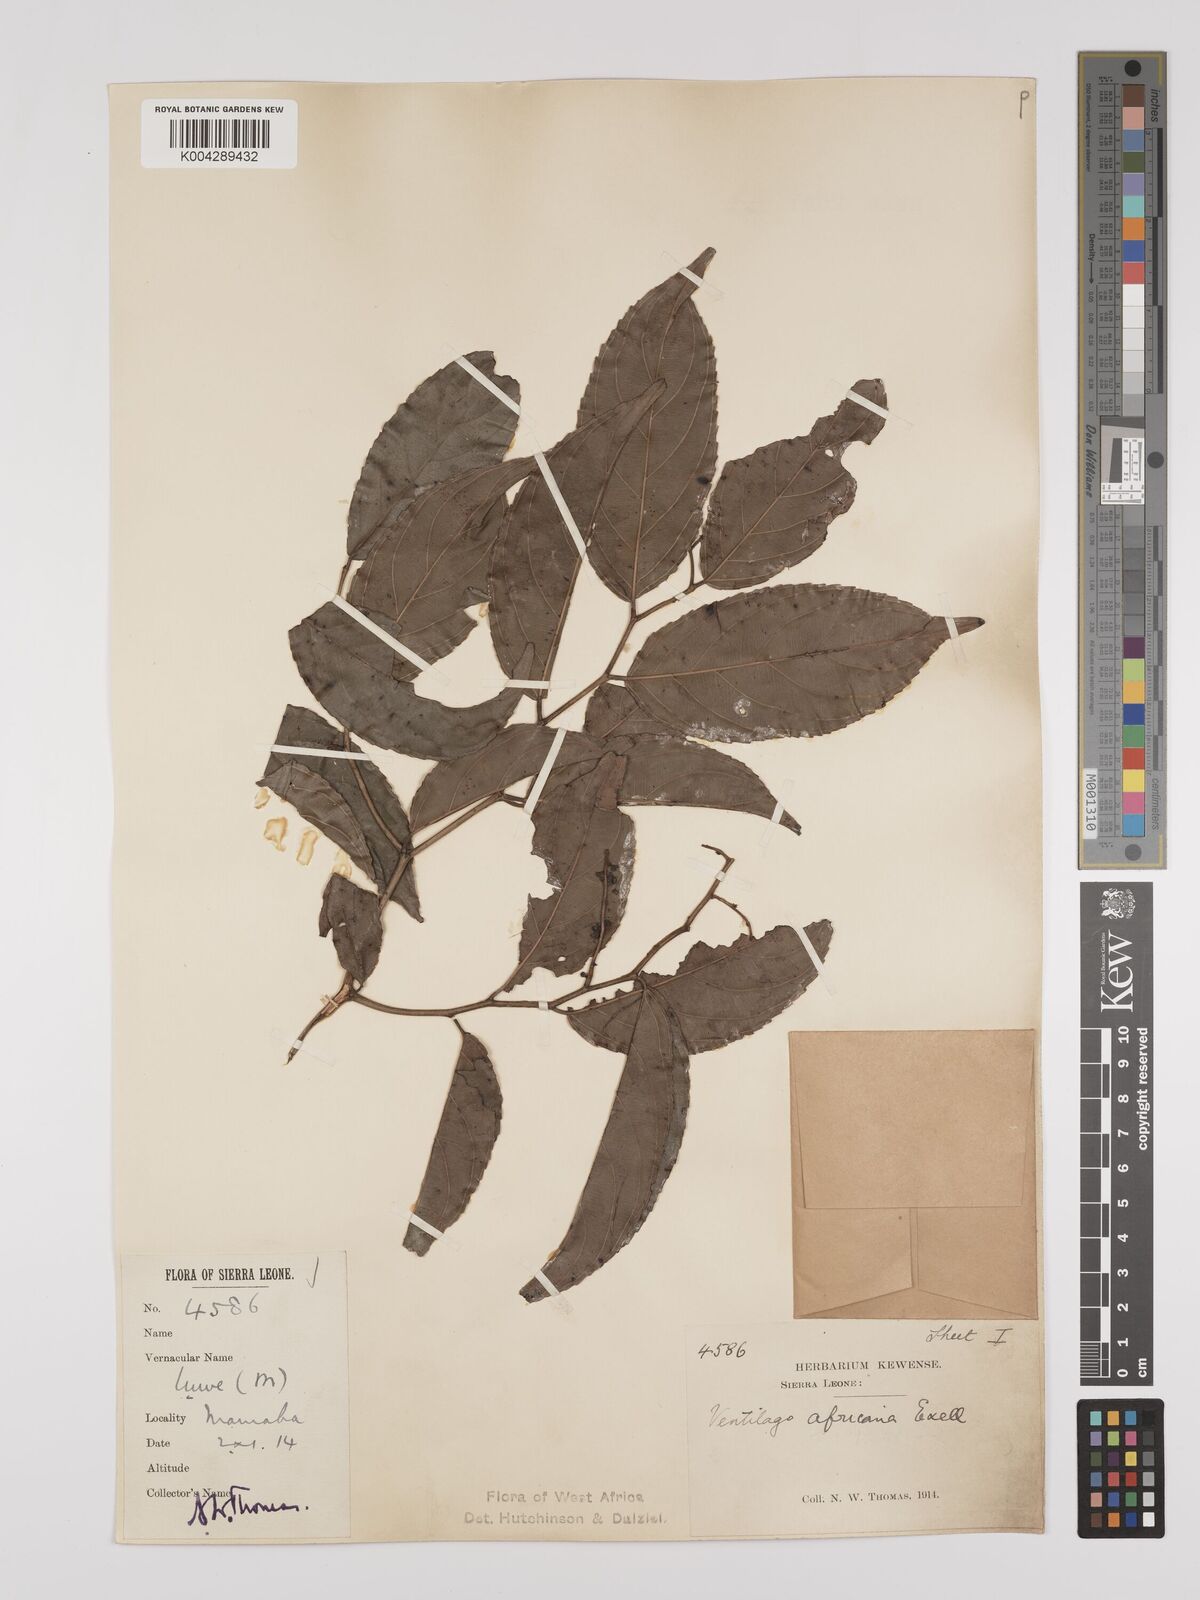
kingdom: Plantae
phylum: Tracheophyta
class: Magnoliopsida
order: Rosales
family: Rhamnaceae
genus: Ventilago
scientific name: Ventilago africana
